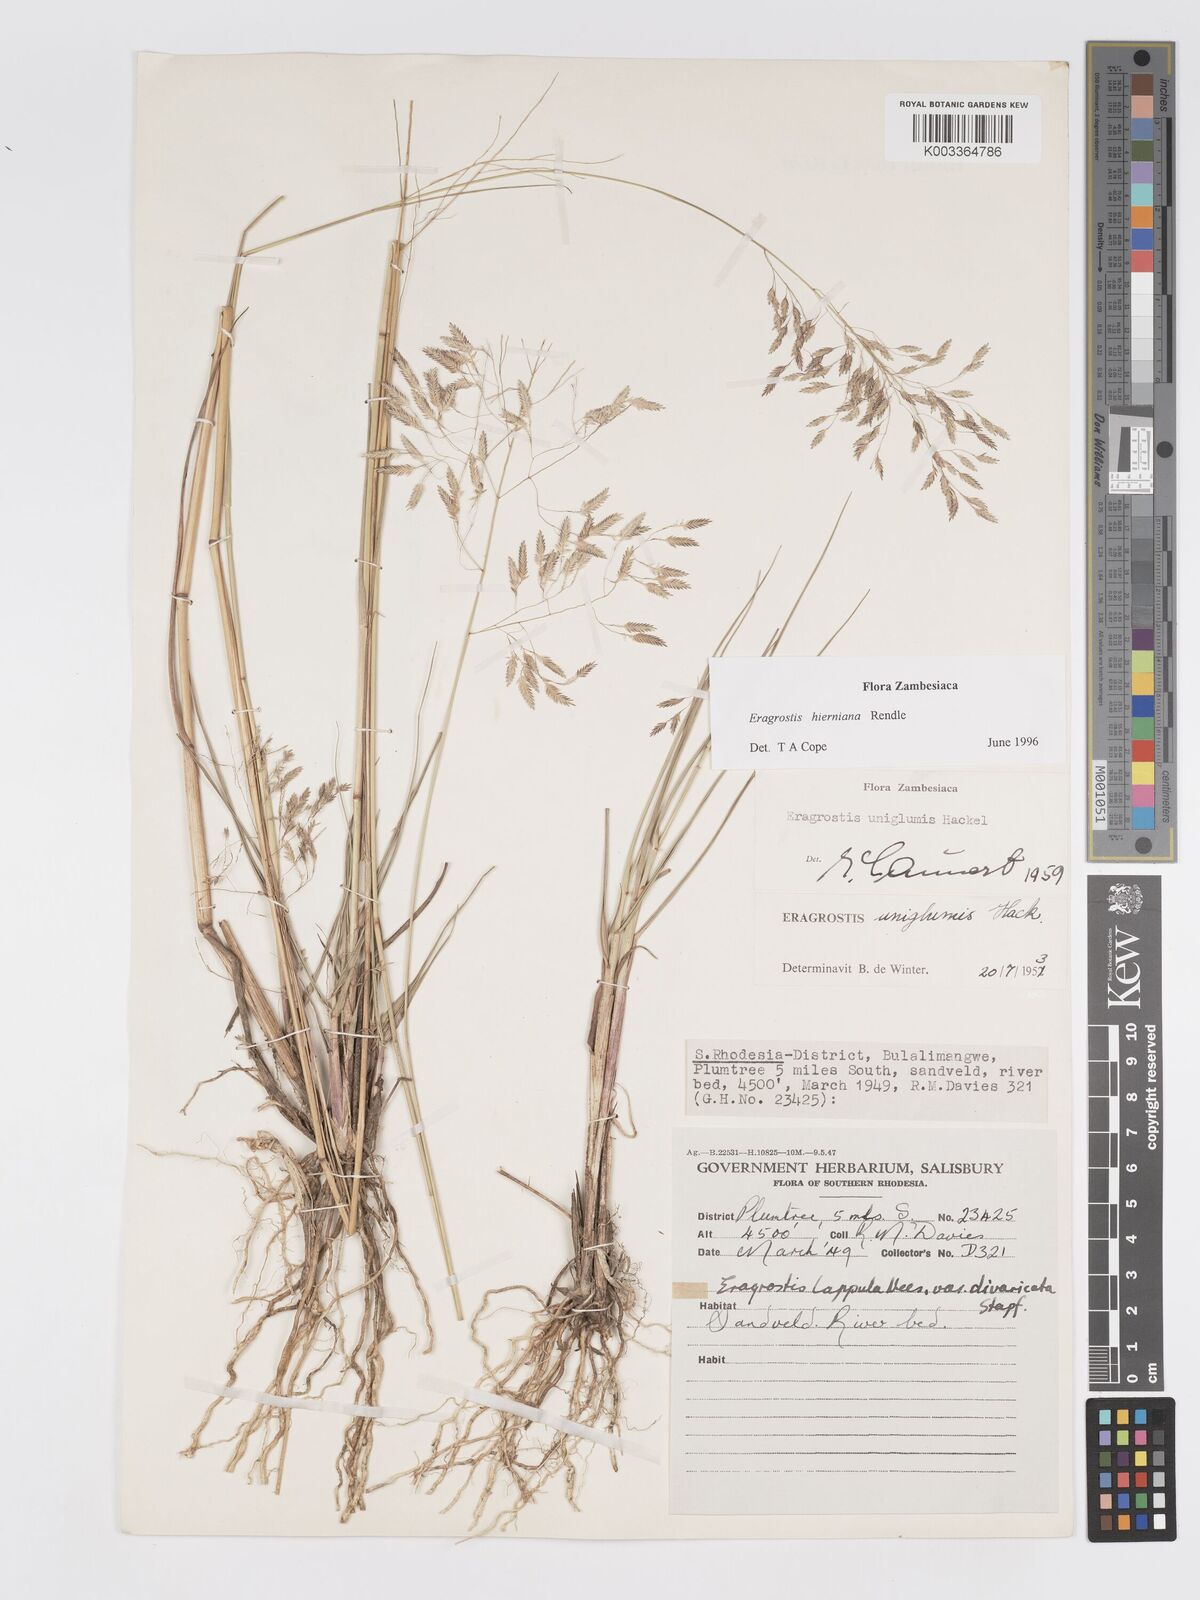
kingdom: Plantae
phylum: Tracheophyta
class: Liliopsida
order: Poales
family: Poaceae
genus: Eragrostis
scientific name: Eragrostis hierniana
